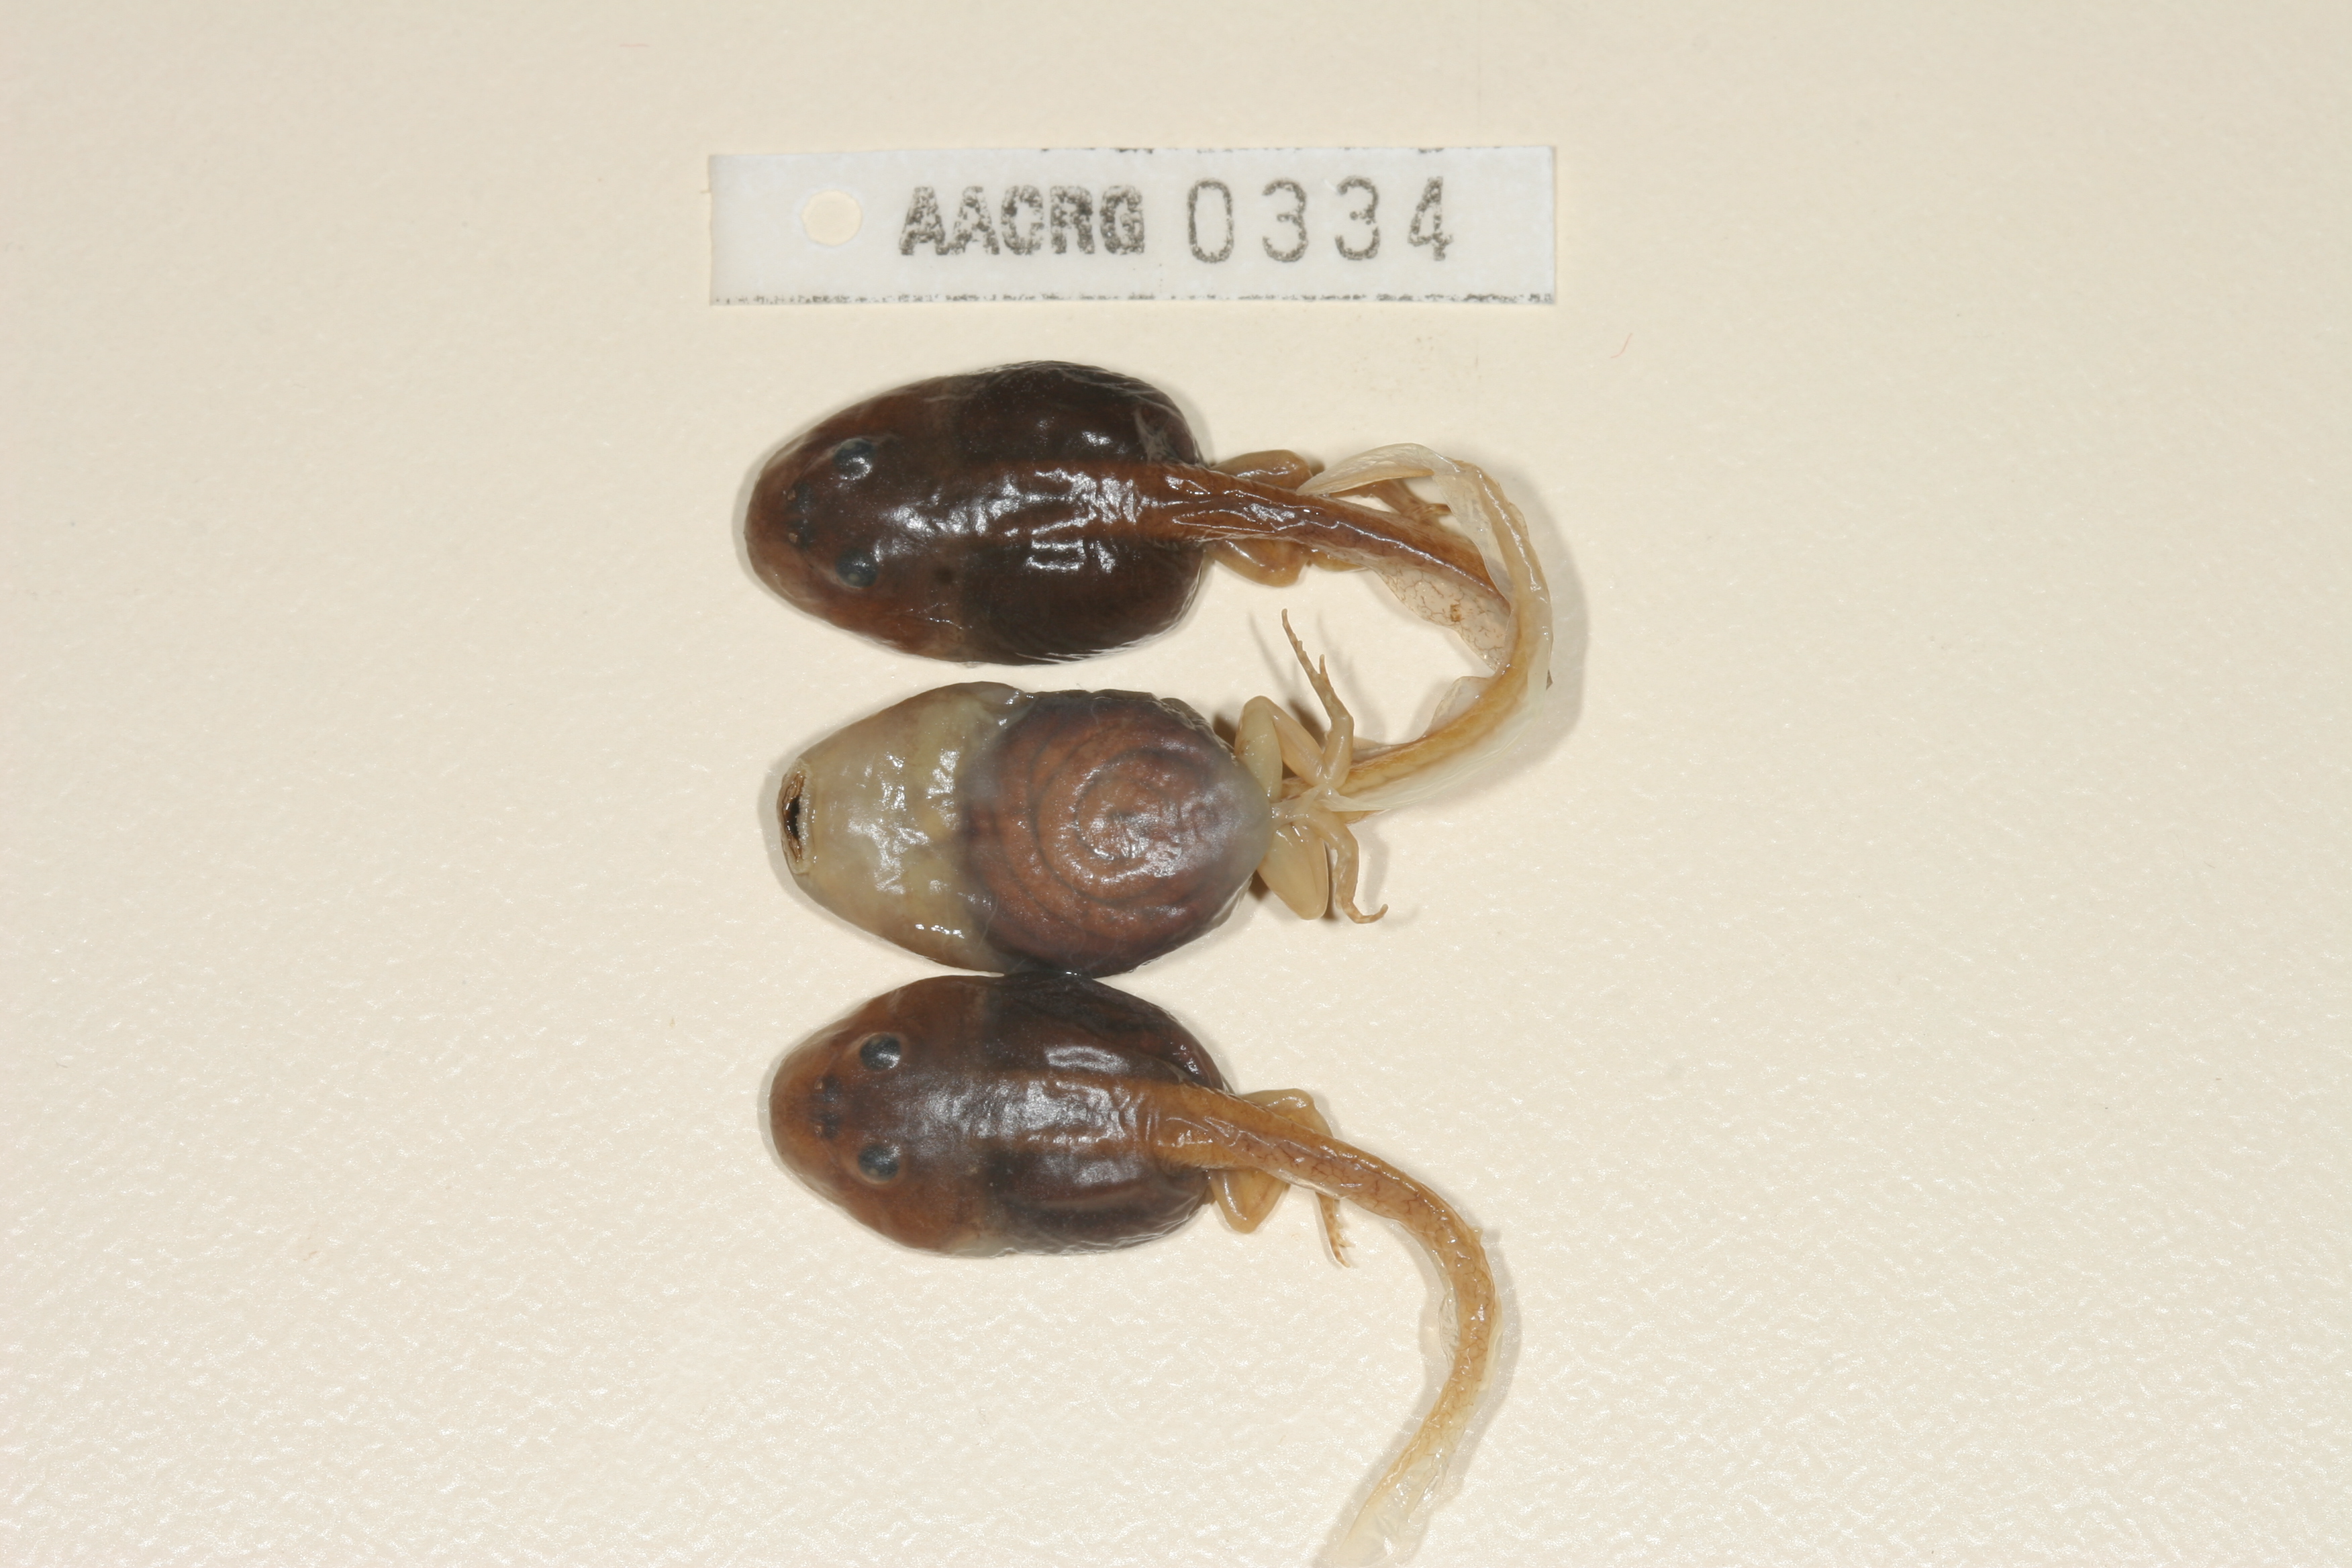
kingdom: Animalia
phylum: Chordata
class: Amphibia
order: Anura
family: Pyxicephalidae
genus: Strongylopus
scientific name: Strongylopus springbokensis
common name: Namaqua stream frog
